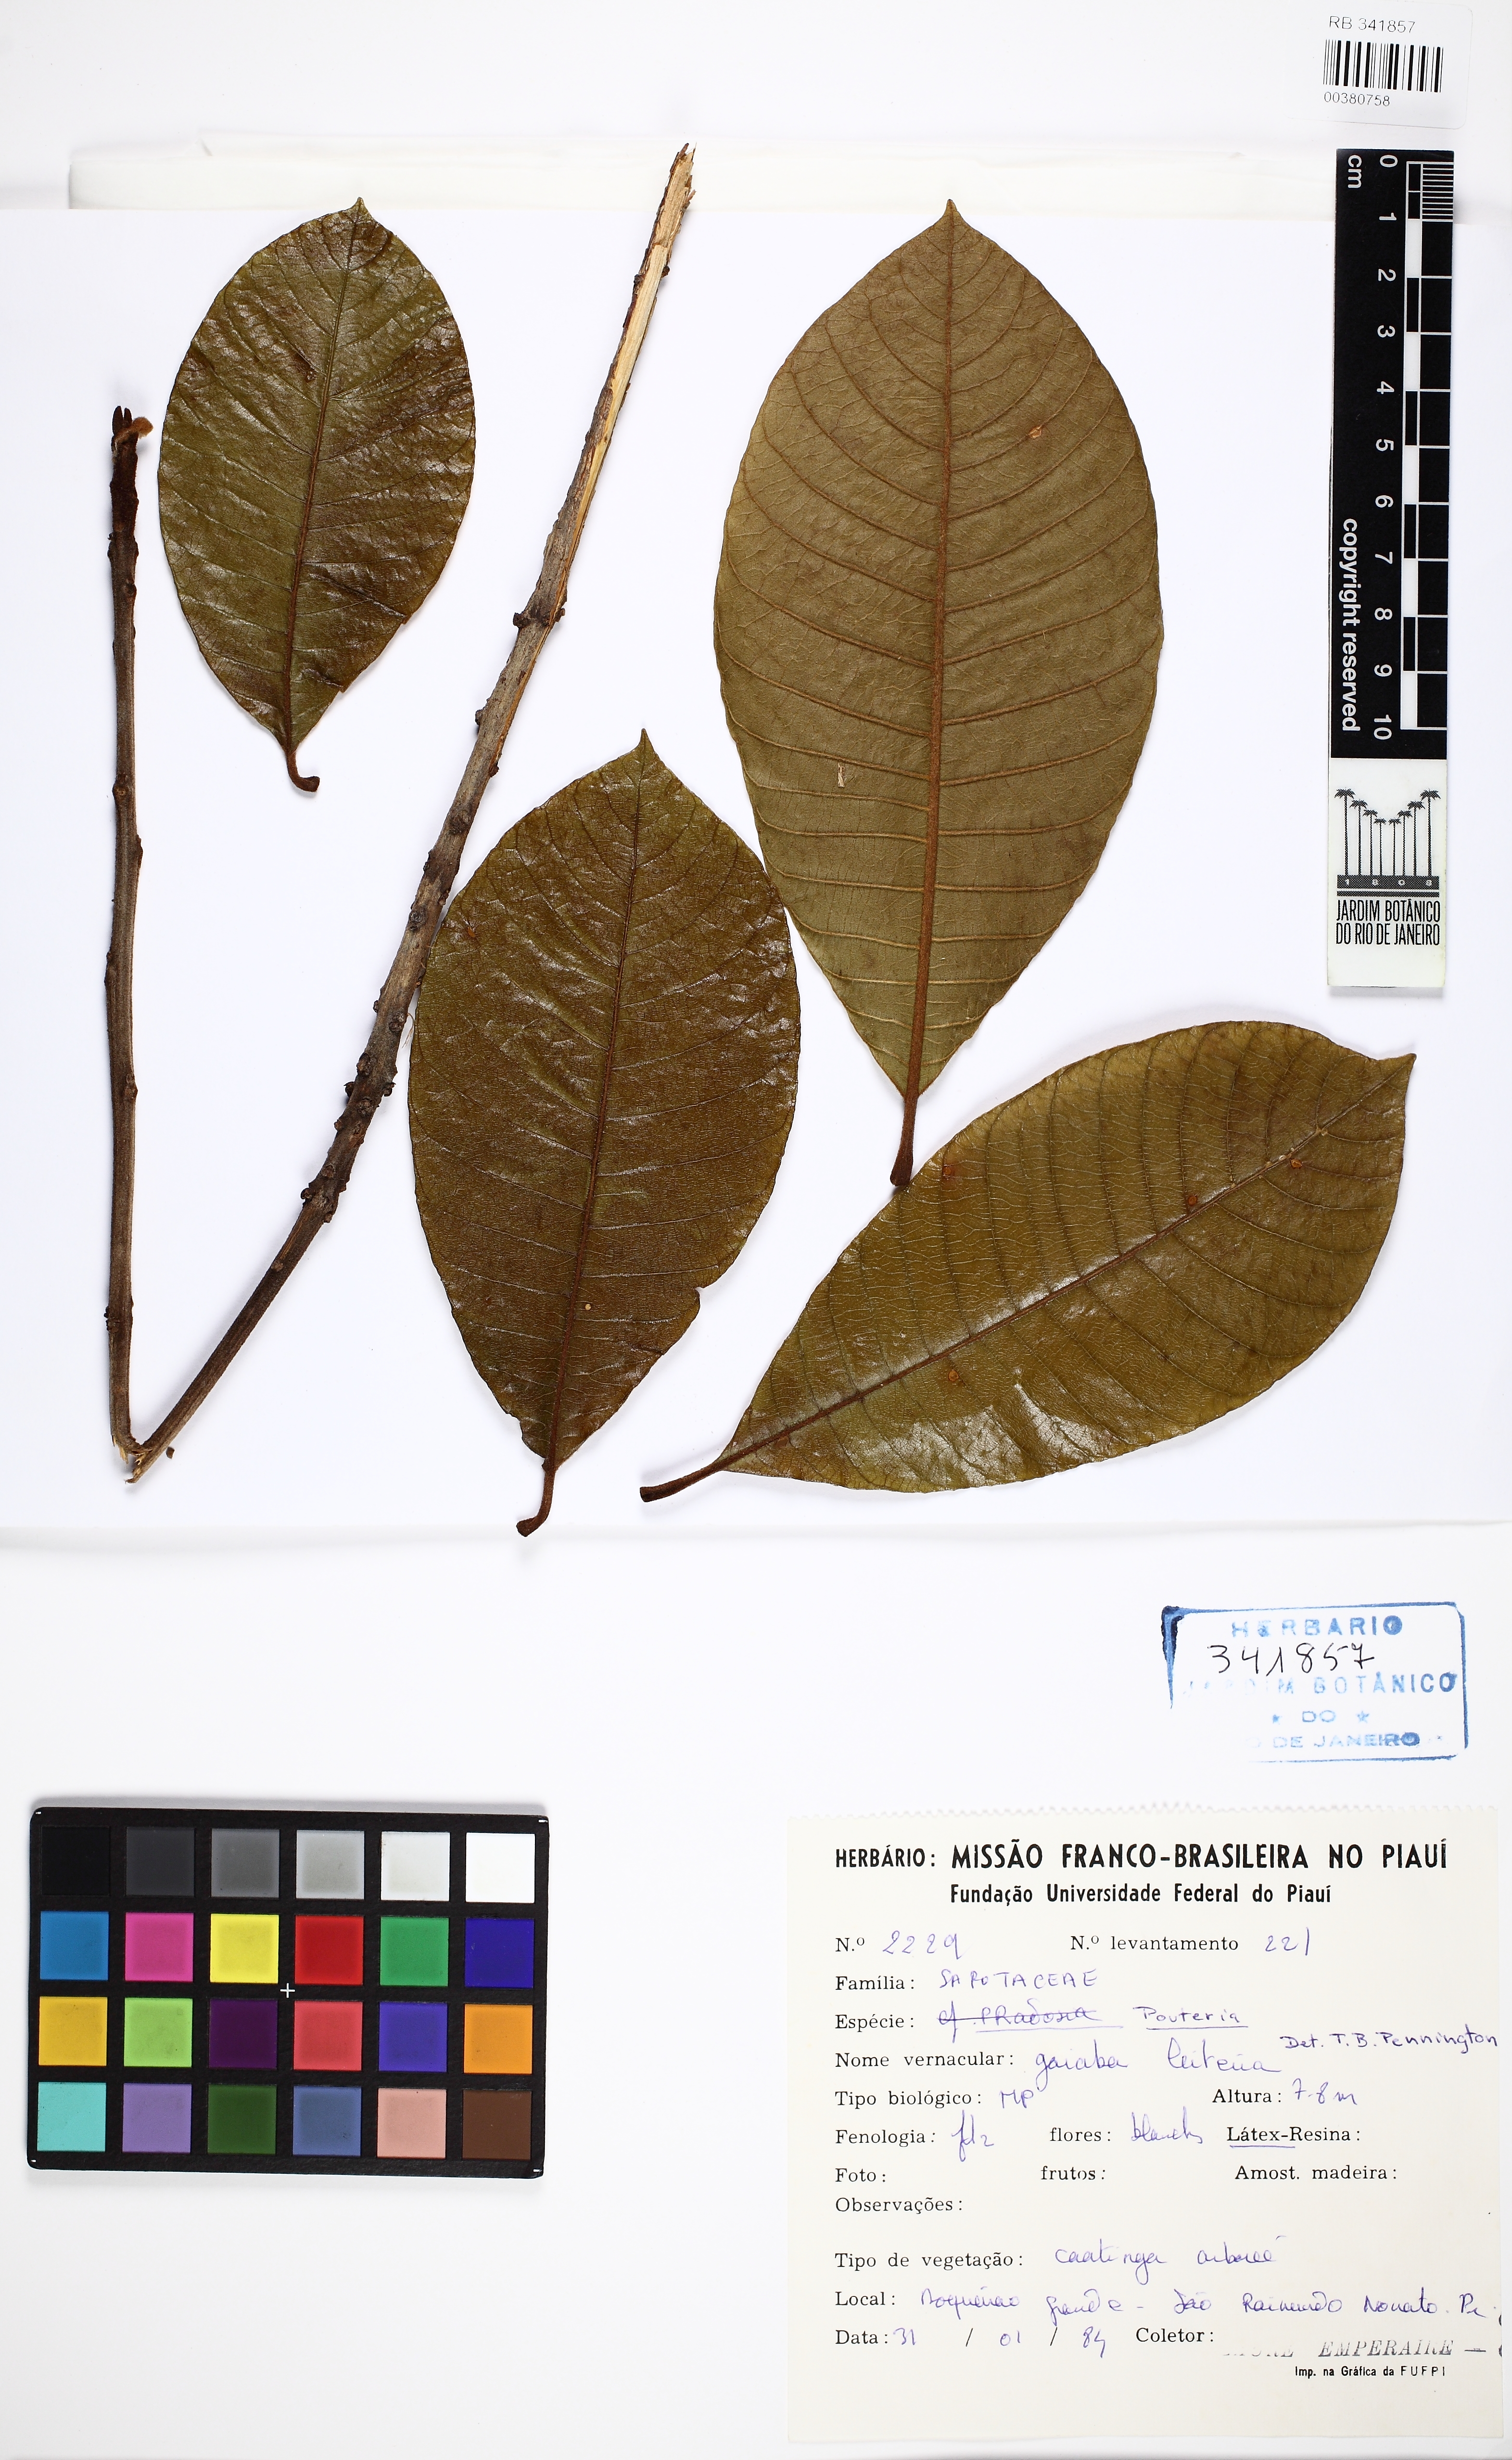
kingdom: Plantae
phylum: Tracheophyta
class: Magnoliopsida
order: Ericales
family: Sapotaceae
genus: Pouteria
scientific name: Pouteria furcata
